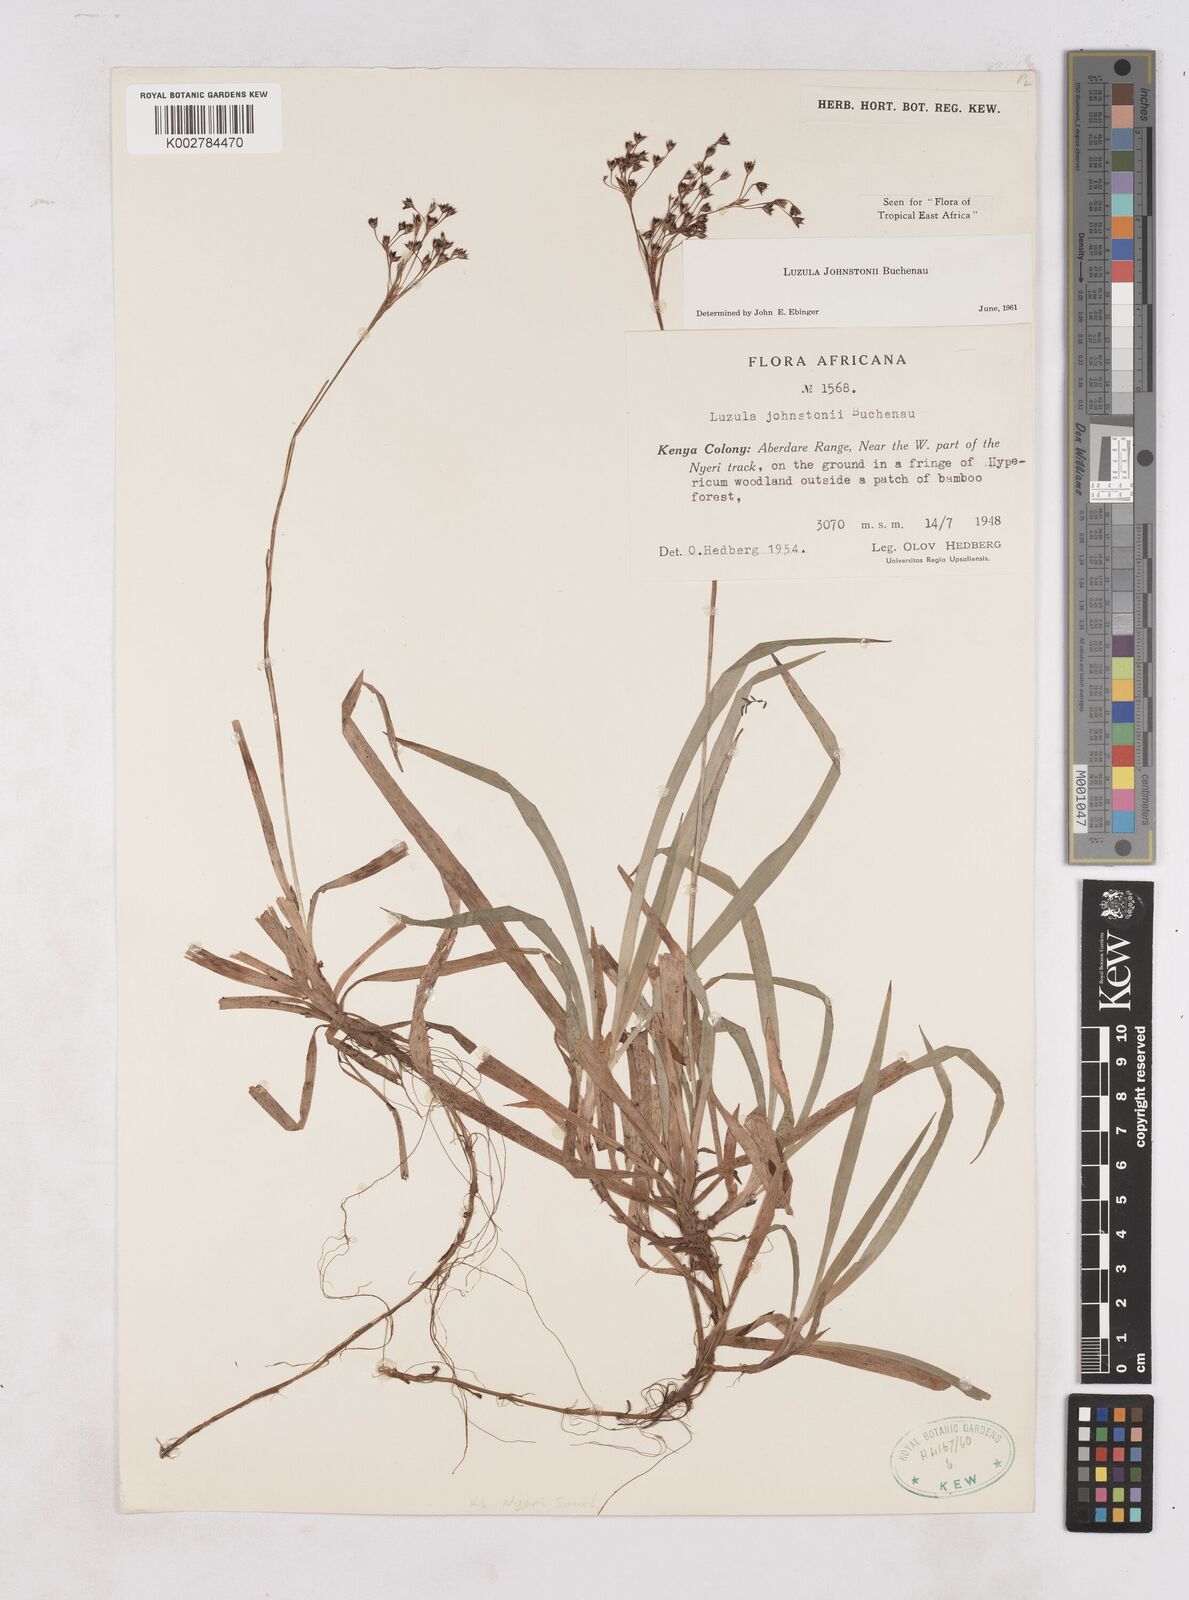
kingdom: Plantae
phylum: Tracheophyta
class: Liliopsida
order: Poales
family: Juncaceae
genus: Luzula
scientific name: Luzula johnstonii
